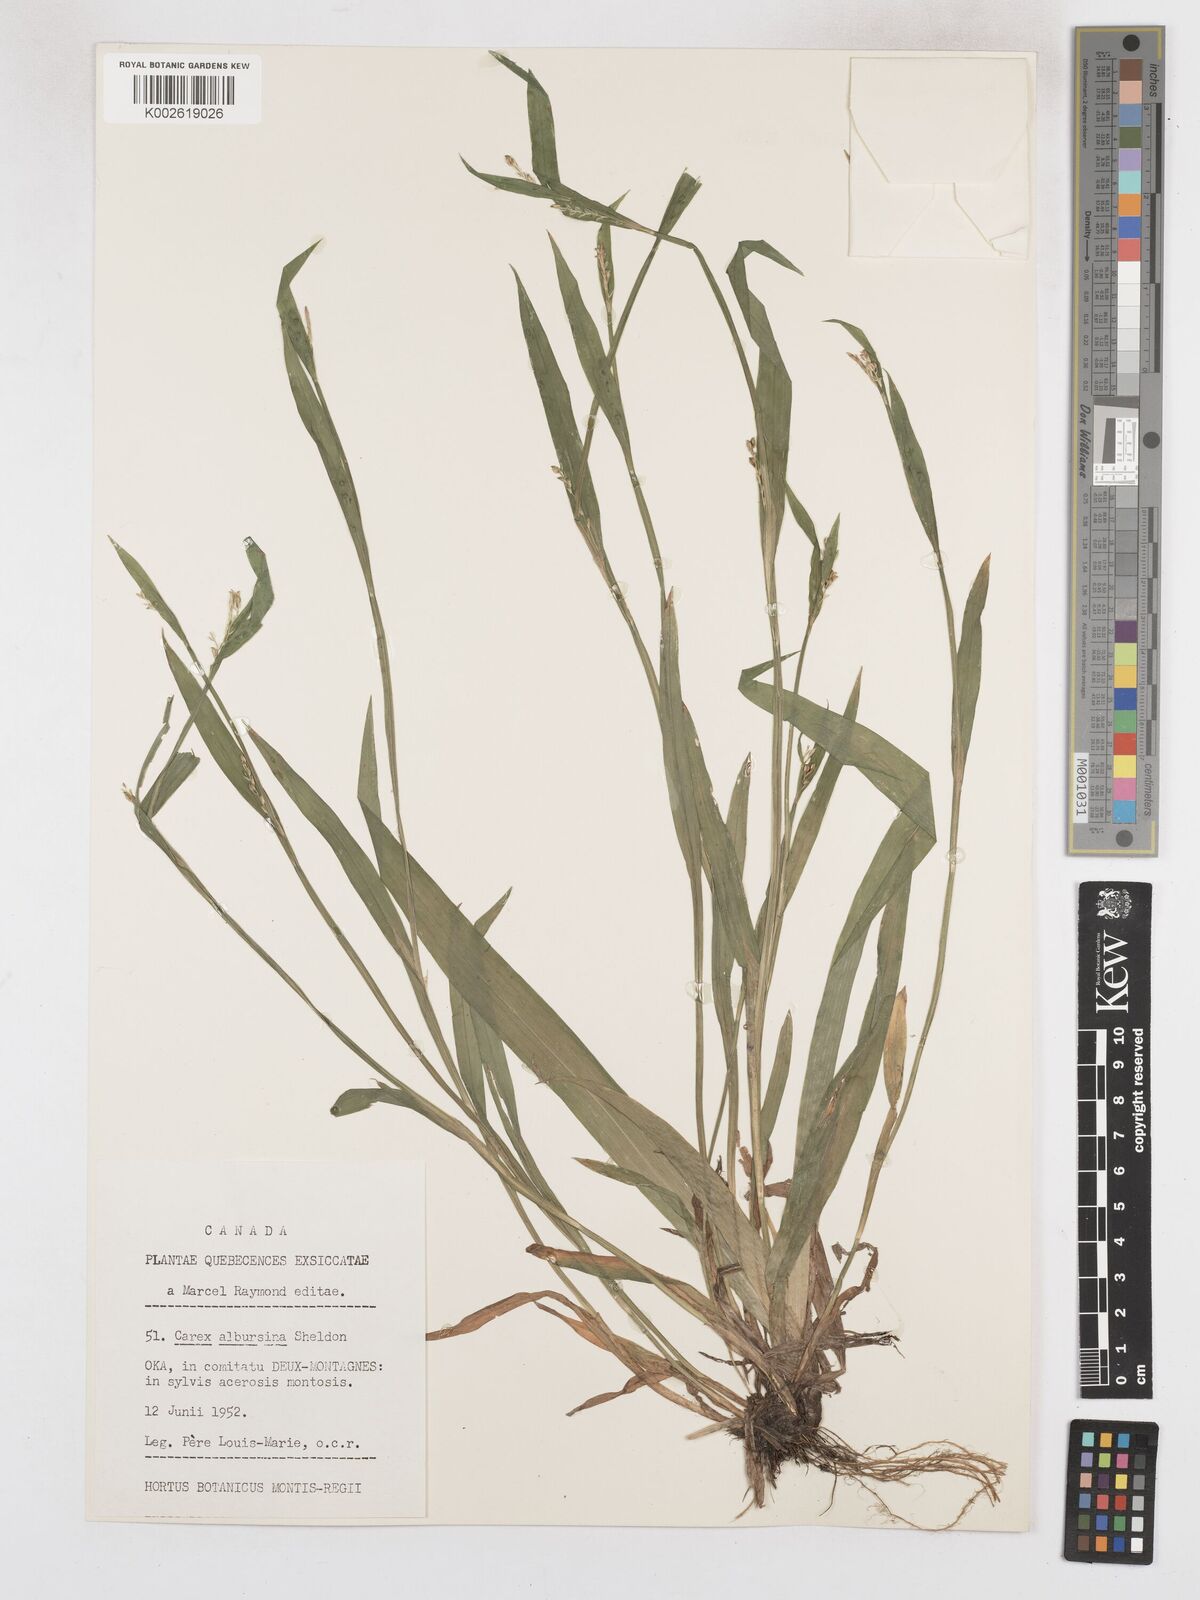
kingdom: Plantae
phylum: Tracheophyta
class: Liliopsida
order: Poales
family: Cyperaceae
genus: Carex
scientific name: Carex albursina
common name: Blunt-scale wood sedge
